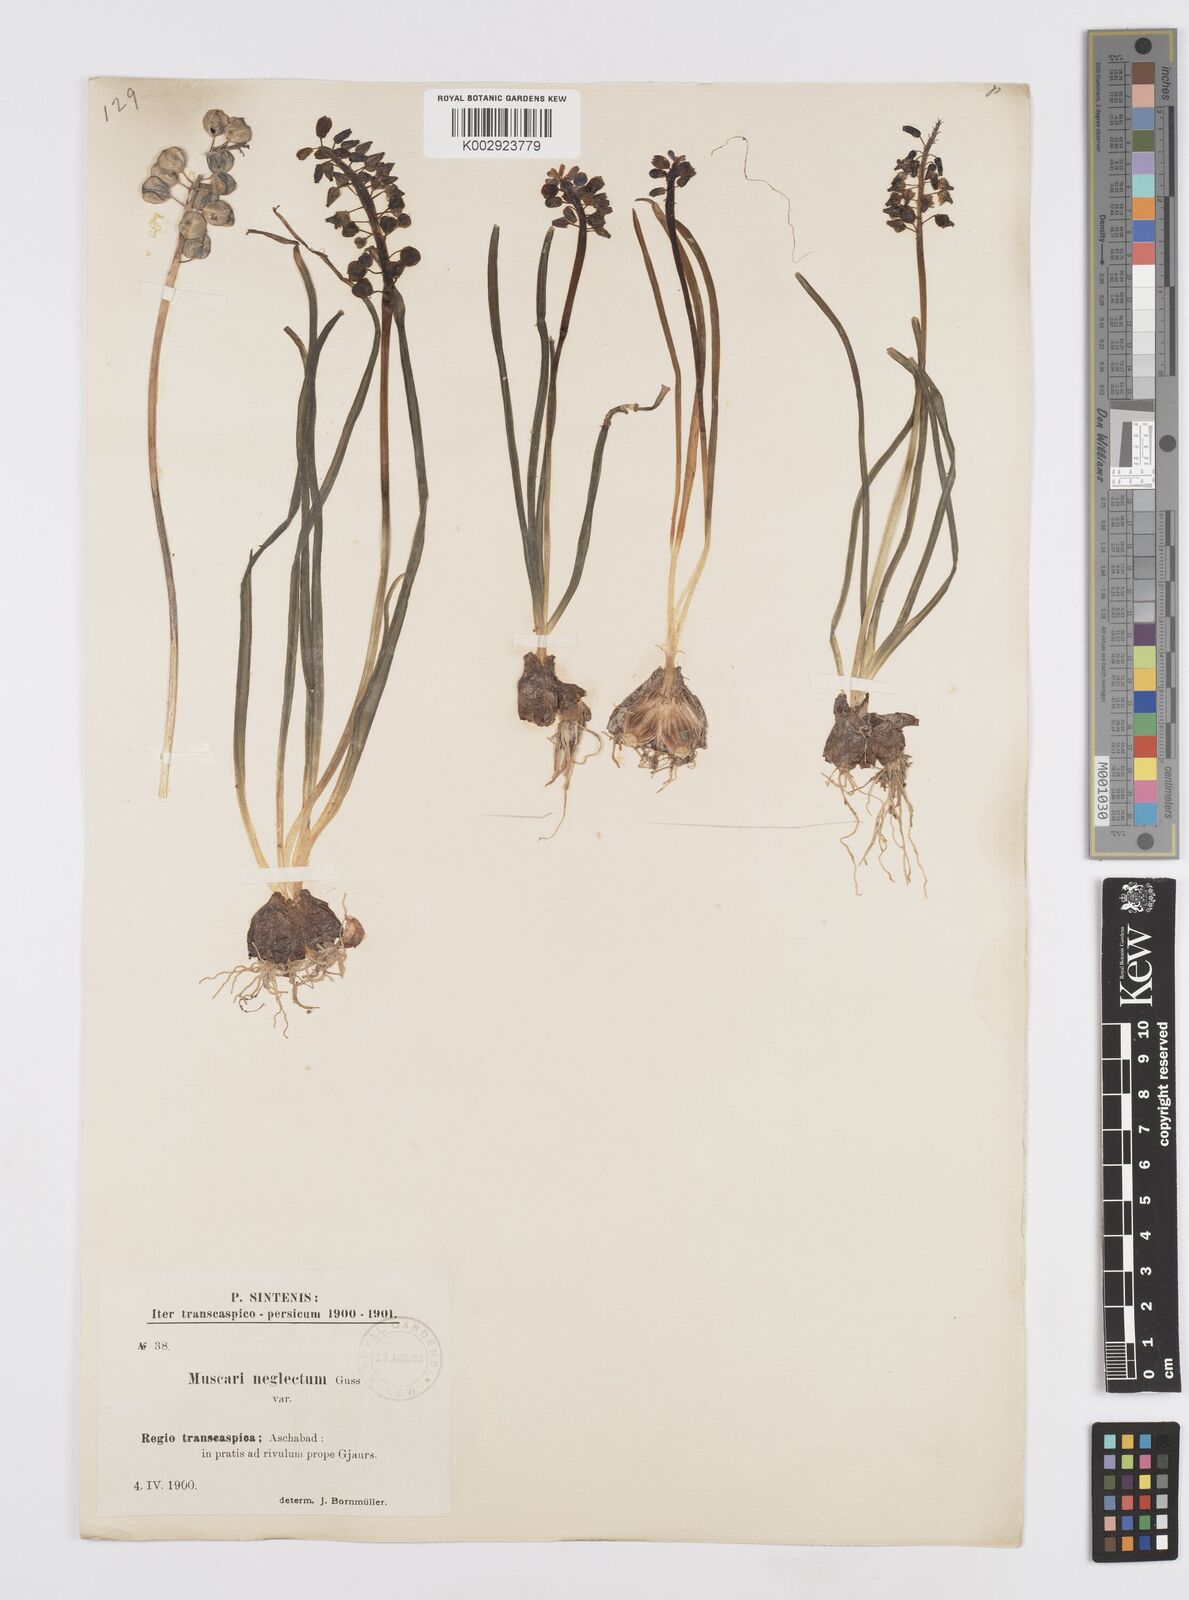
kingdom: Plantae
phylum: Tracheophyta
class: Liliopsida
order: Asparagales
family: Asparagaceae
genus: Muscari
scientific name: Muscari neglectum
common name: Grape-hyacinth
